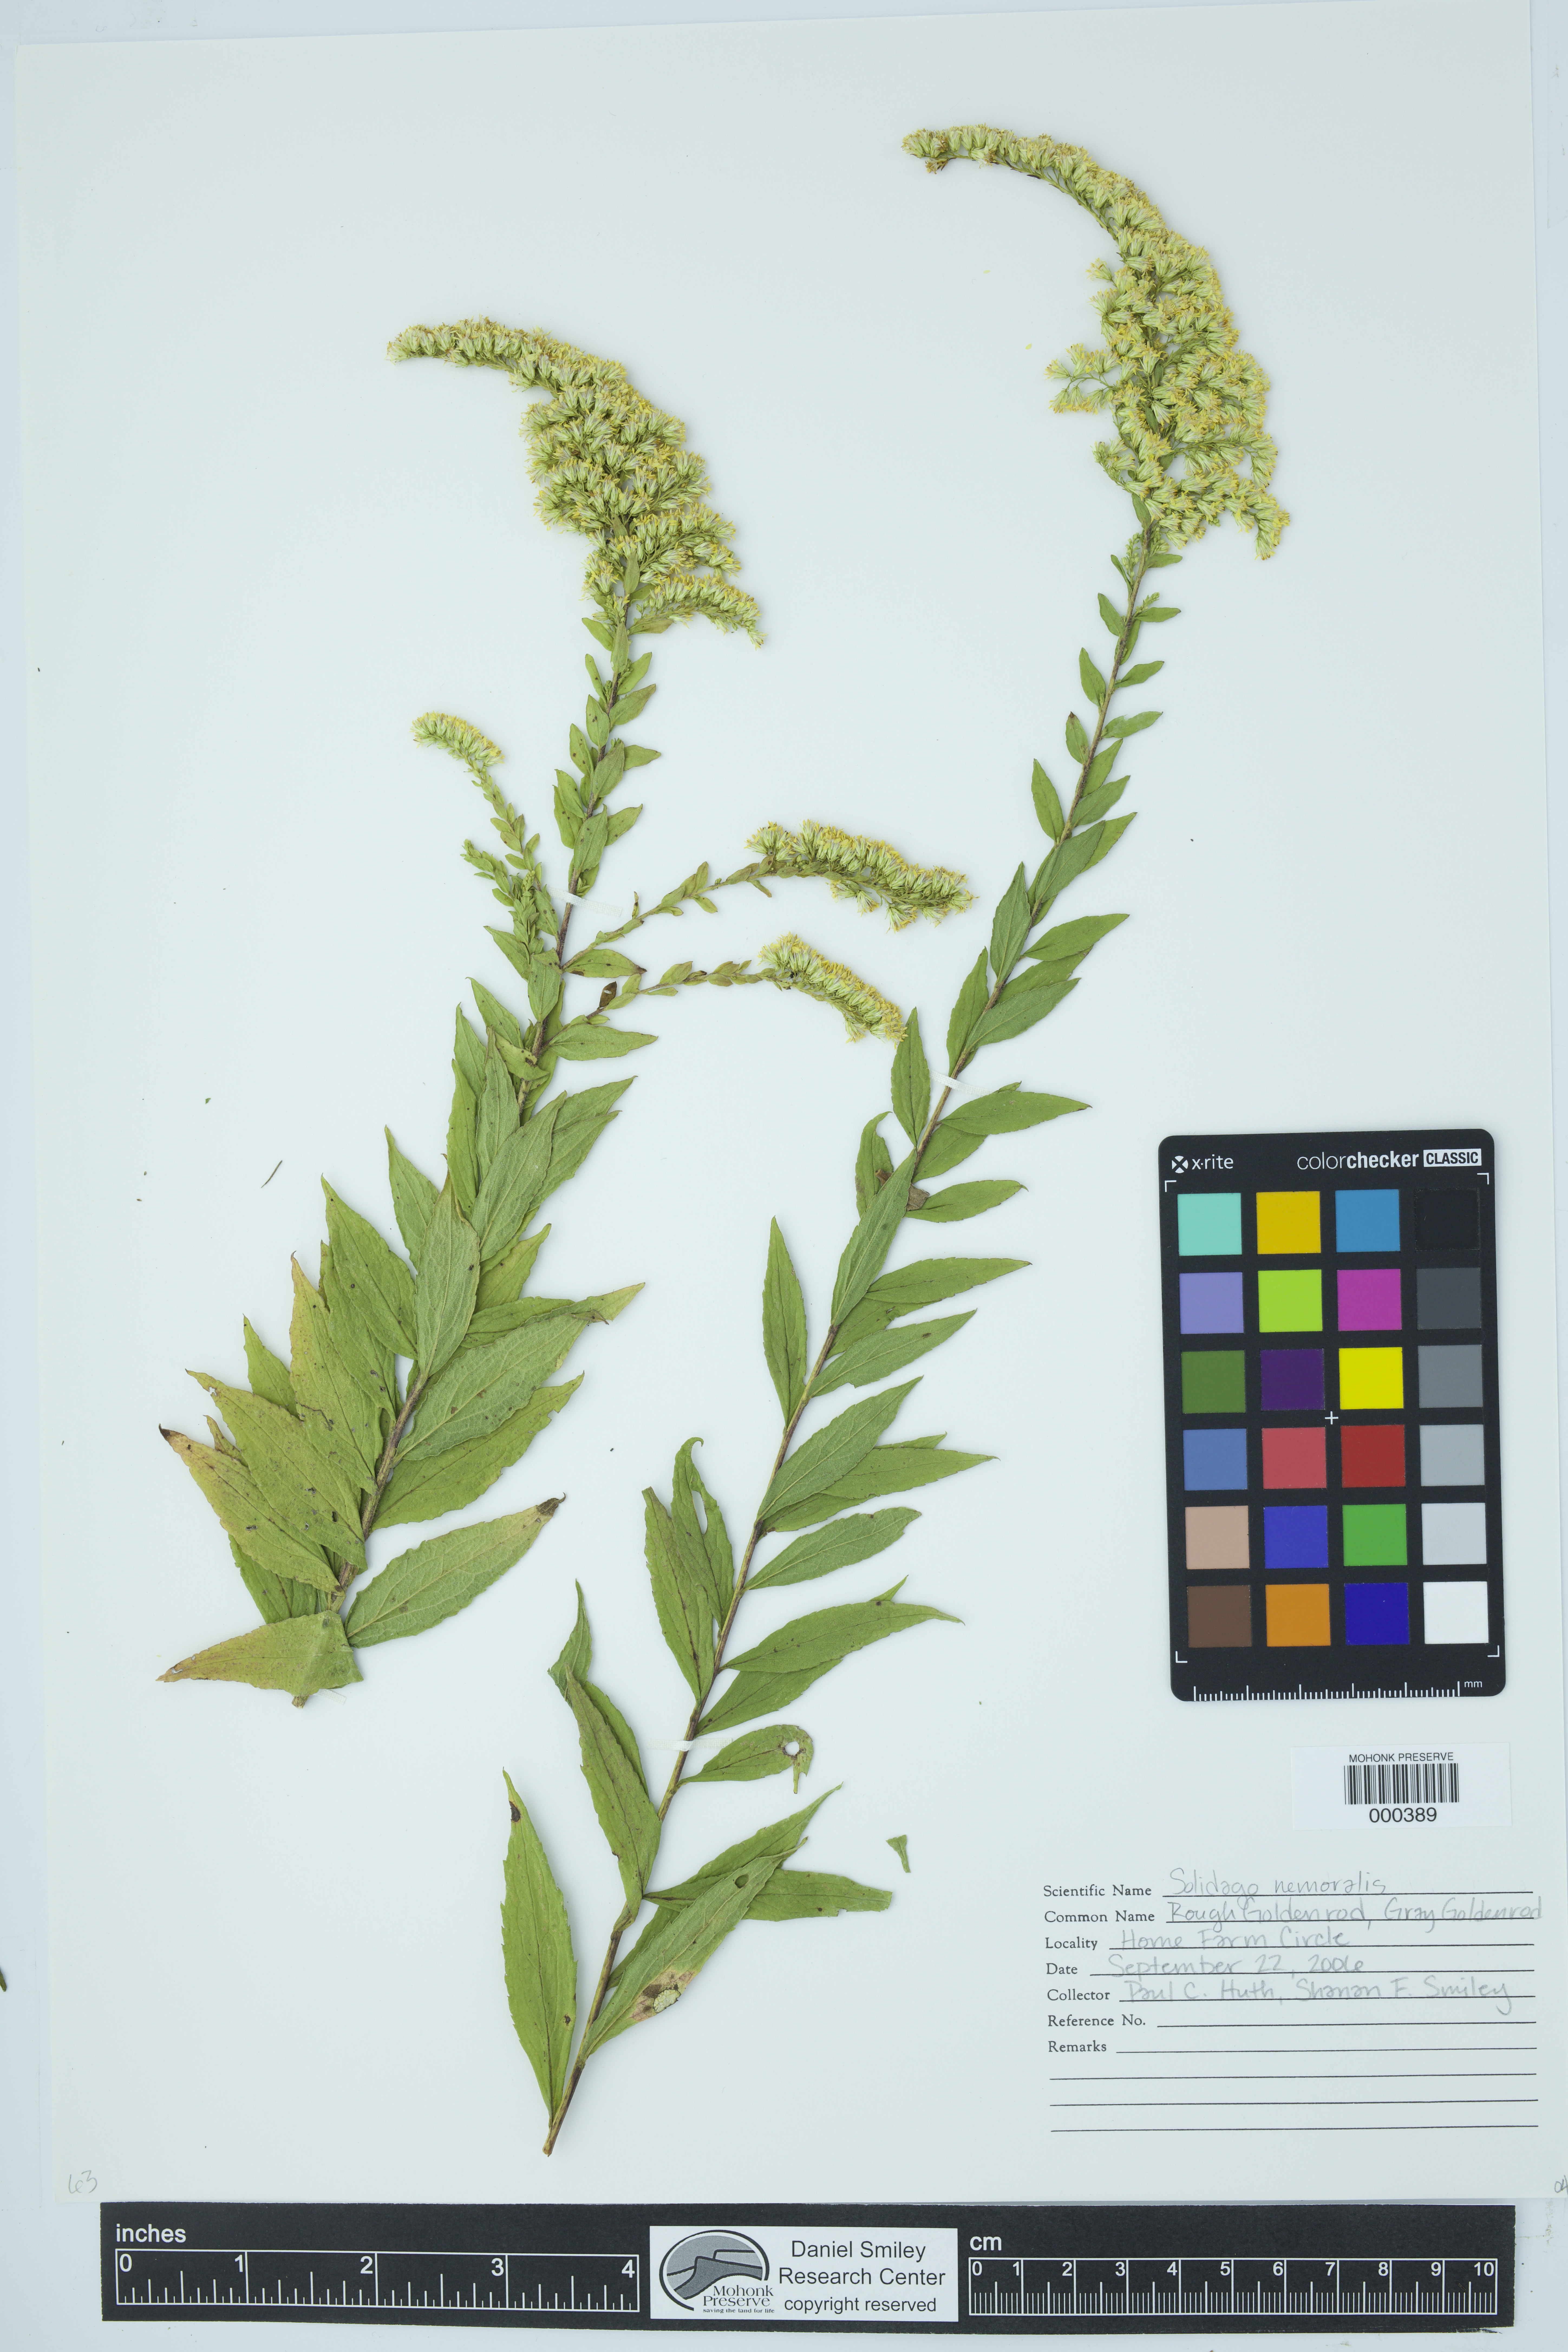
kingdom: Plantae
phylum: Tracheophyta
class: Magnoliopsida
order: Asterales
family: Asteraceae
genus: Solidago
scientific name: Solidago nemoralis
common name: Grey goldenrod
